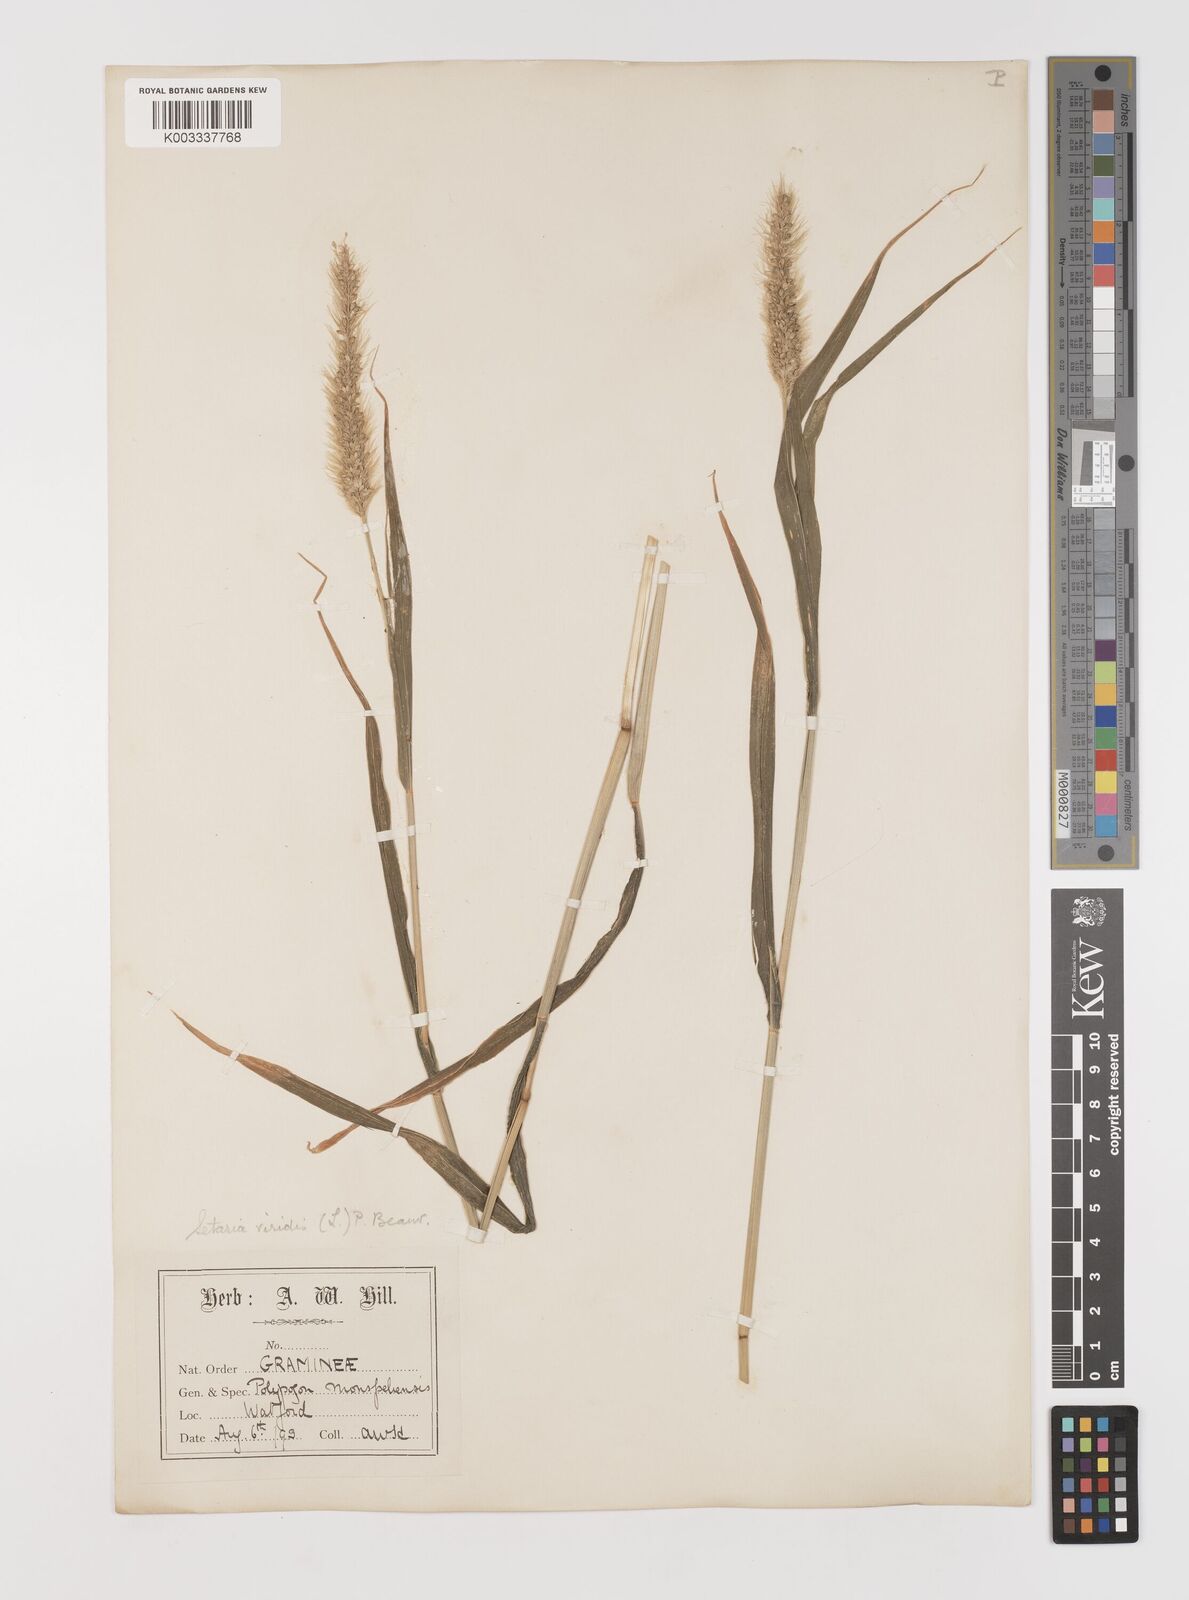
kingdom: Plantae
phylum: Tracheophyta
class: Liliopsida
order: Poales
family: Poaceae
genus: Setaria
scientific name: Setaria viridis
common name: Green bristlegrass
